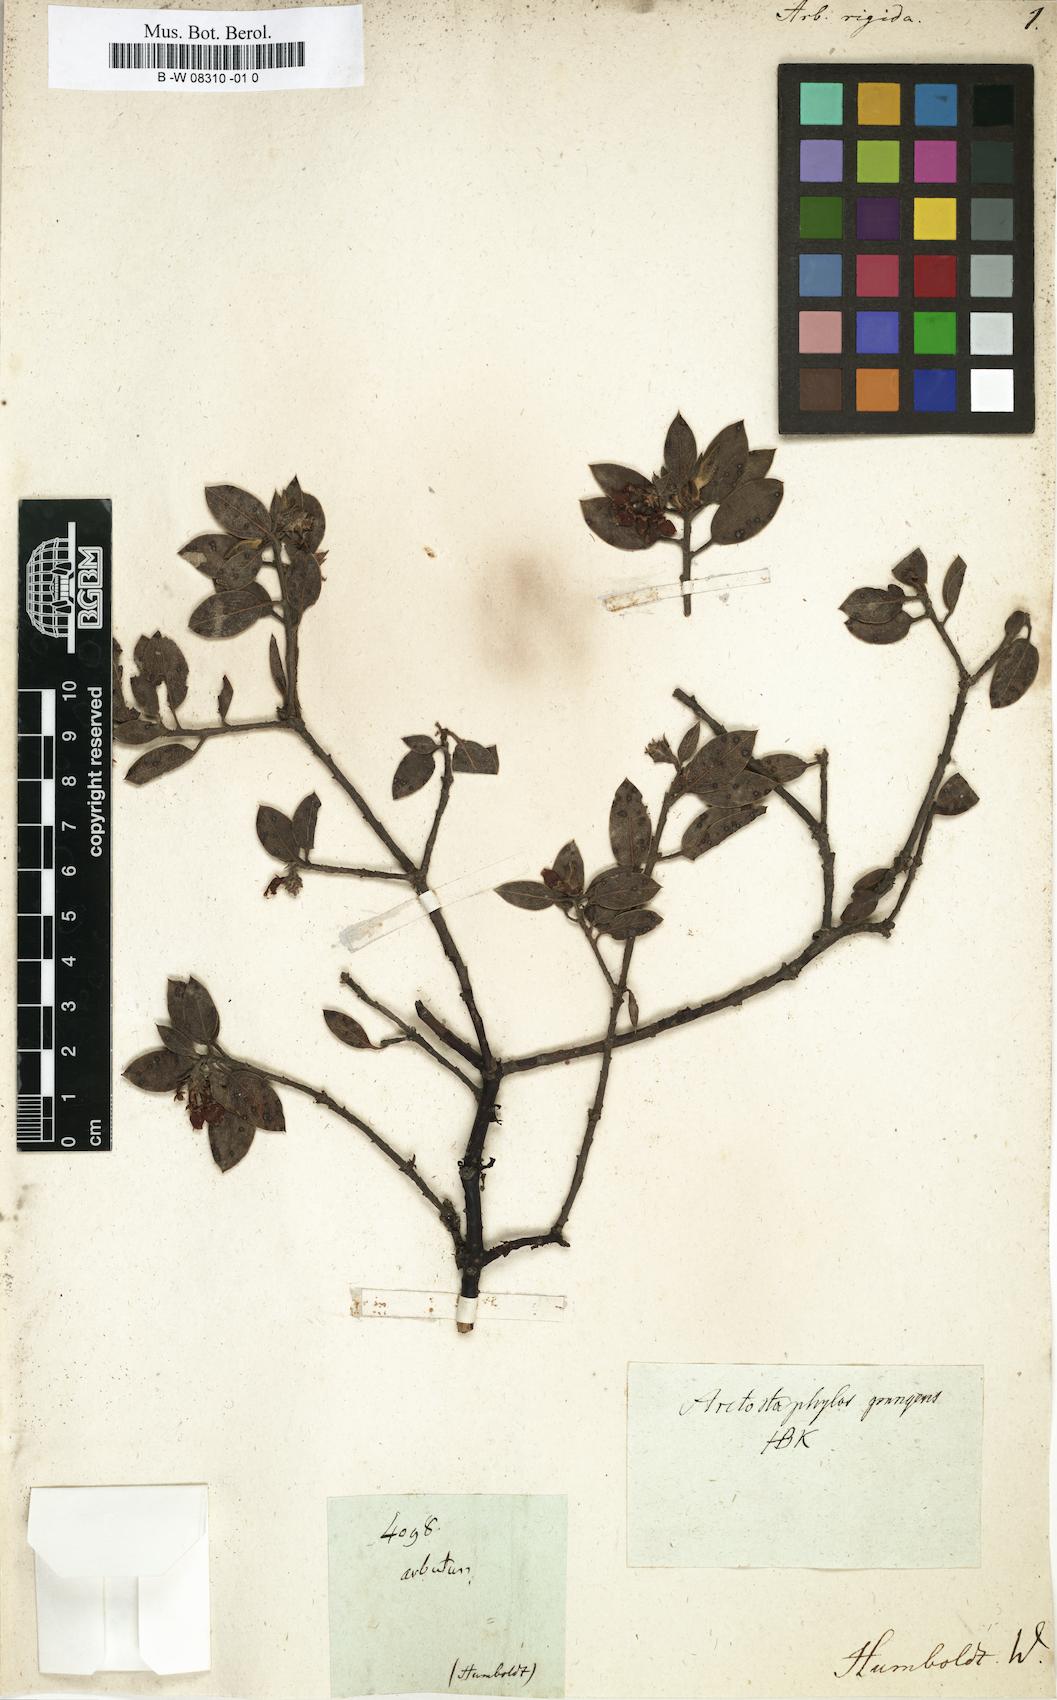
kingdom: Plantae
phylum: Tracheophyta
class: Magnoliopsida
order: Ericales
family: Ericaceae
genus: Arctostaphylos
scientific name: Arctostaphylos pungens
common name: Mexican manzanita
